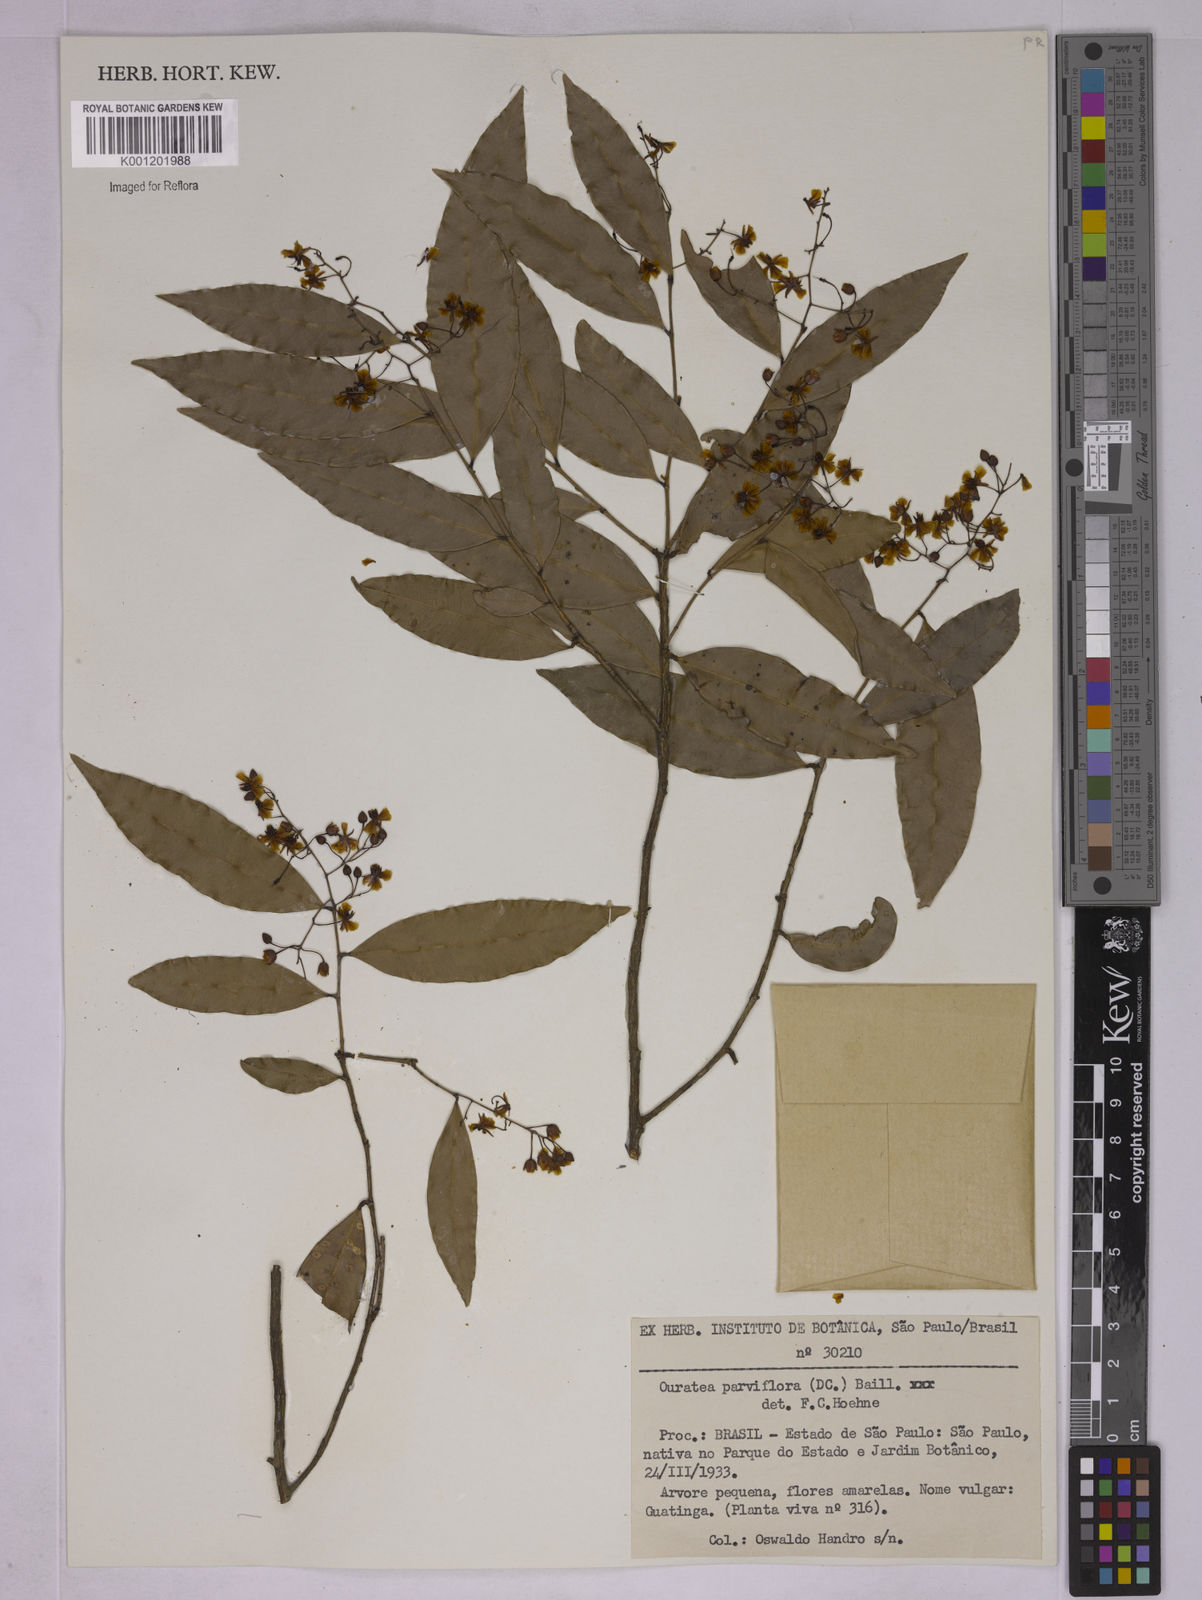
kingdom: Plantae
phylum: Tracheophyta
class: Magnoliopsida
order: Malpighiales
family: Ochnaceae
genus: Ouratea
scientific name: Ouratea parviflora
